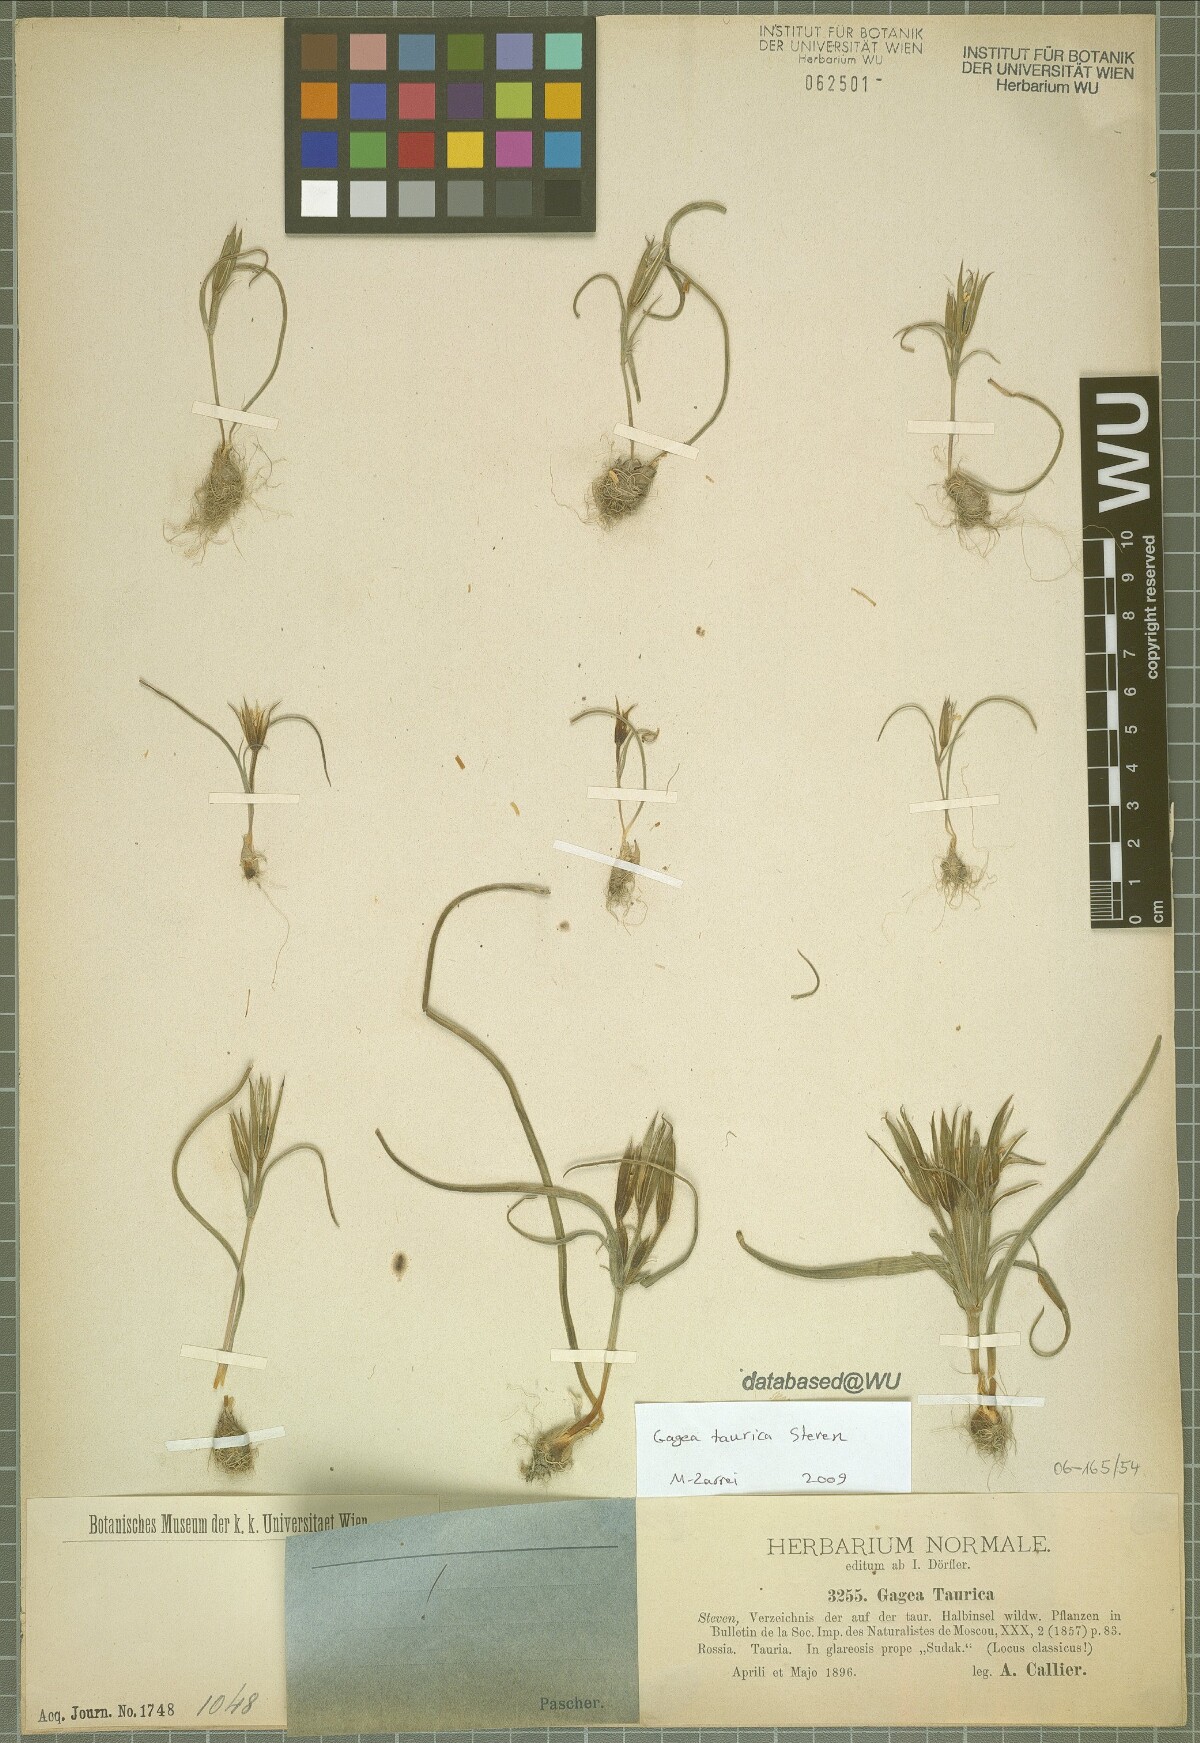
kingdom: Plantae
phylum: Tracheophyta
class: Liliopsida
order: Liliales
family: Liliaceae
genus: Gagea
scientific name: Gagea taurica
